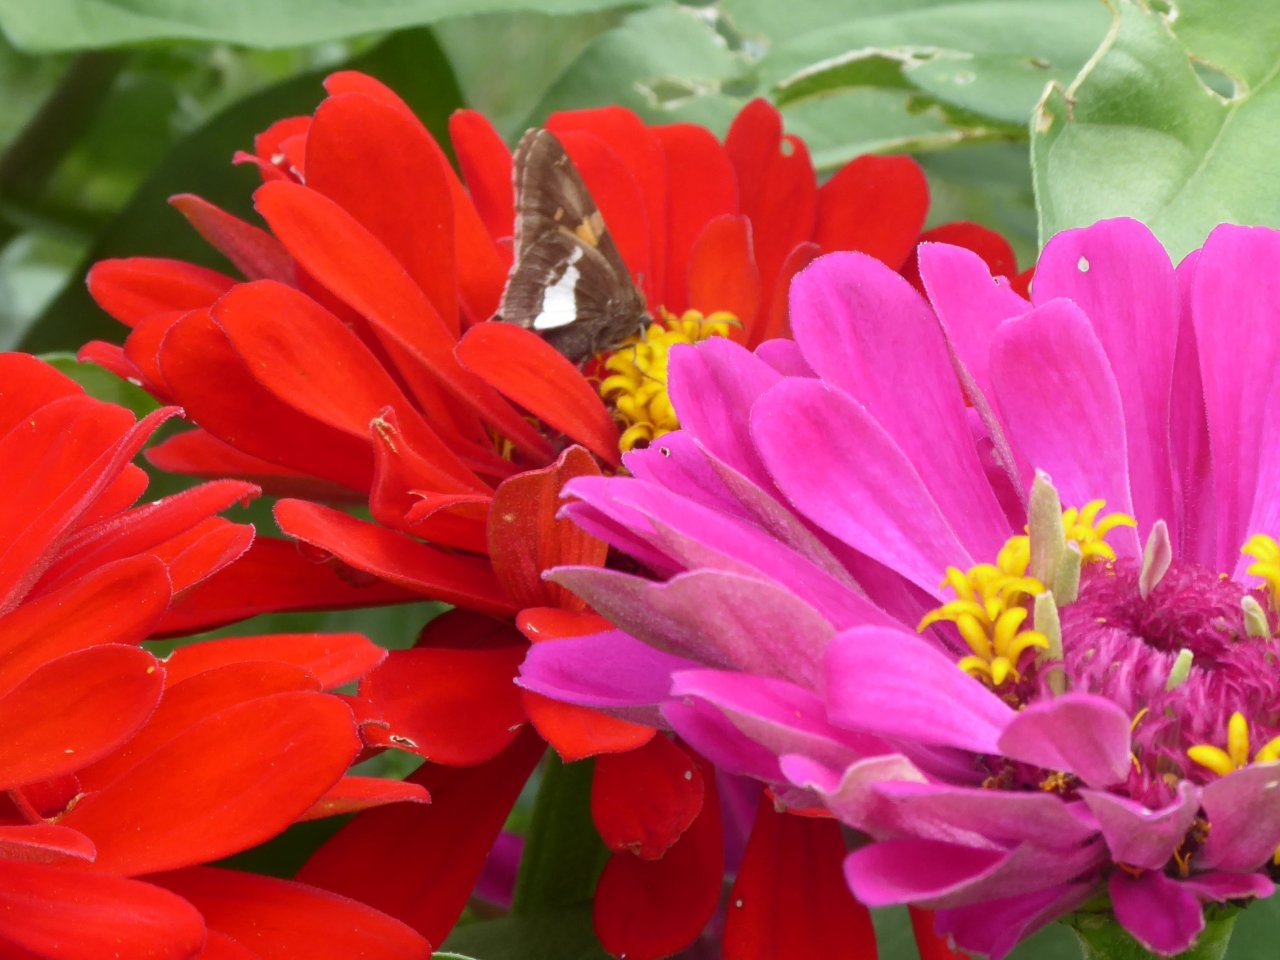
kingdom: Animalia
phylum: Arthropoda
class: Insecta
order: Lepidoptera
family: Hesperiidae
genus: Epargyreus
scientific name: Epargyreus clarus
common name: Silver-spotted Skipper
